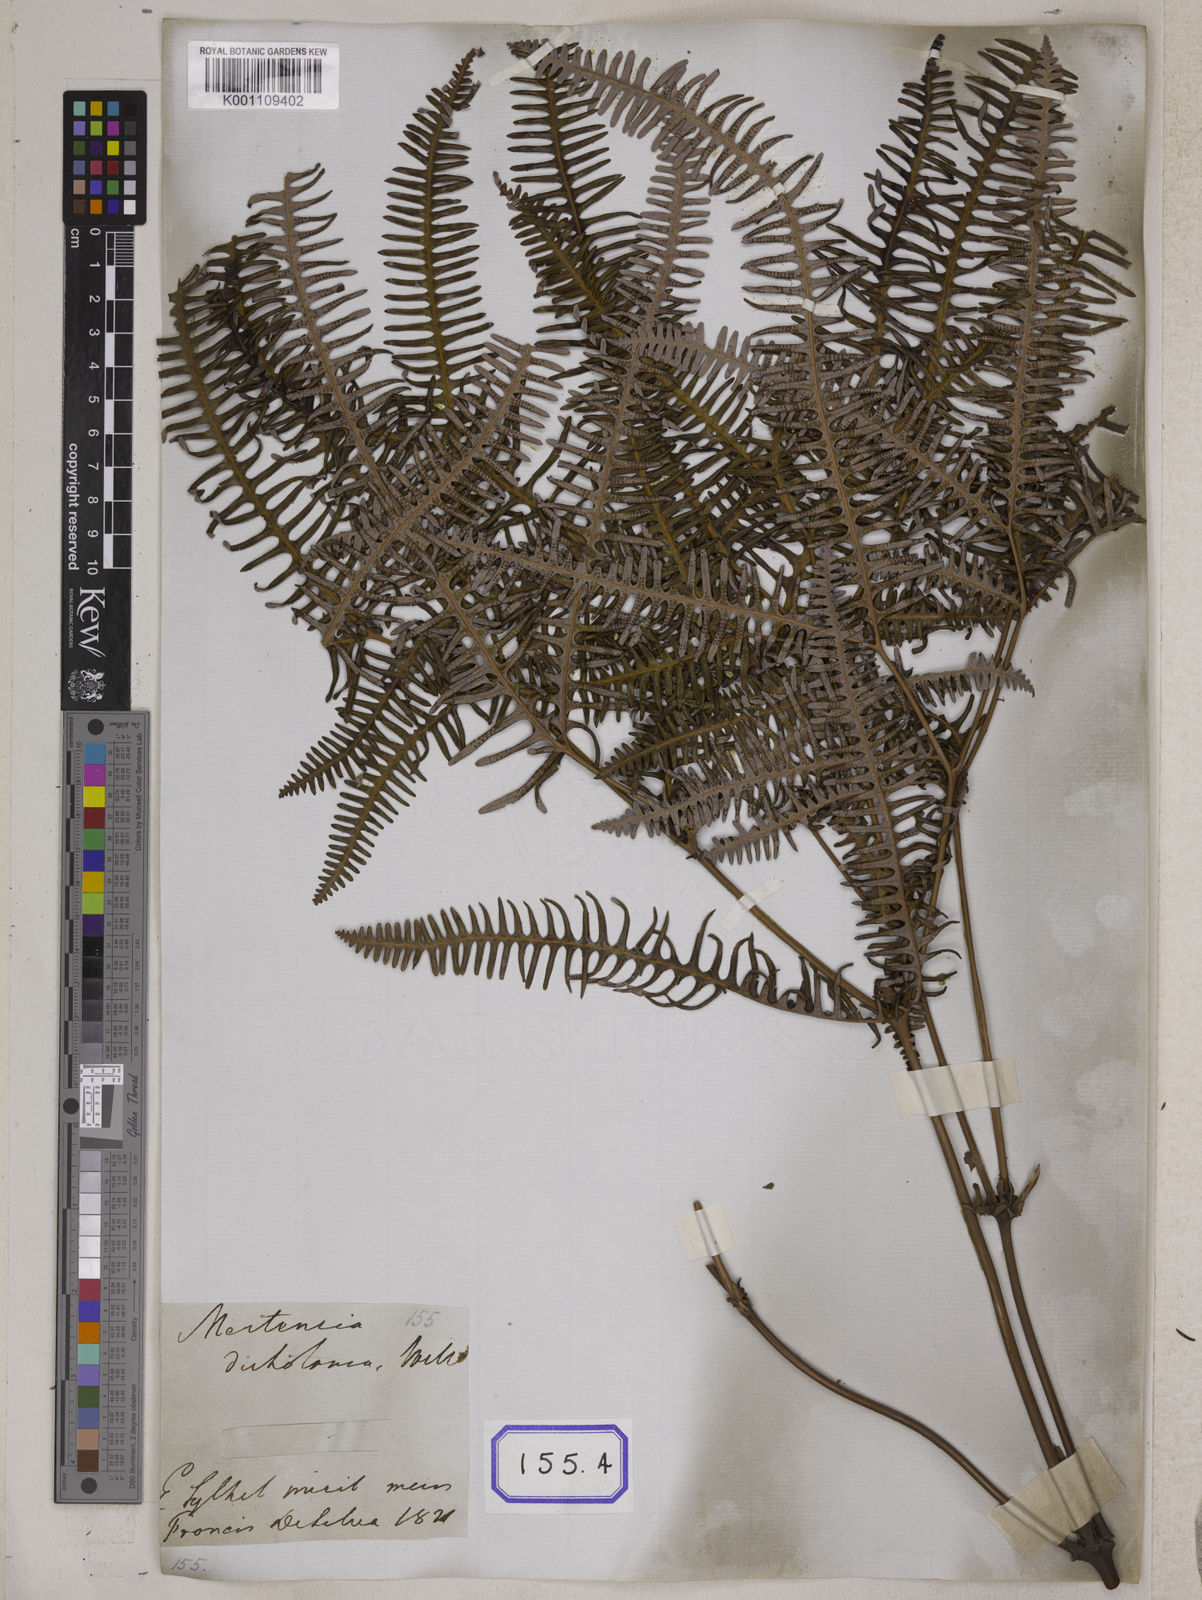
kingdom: Plantae
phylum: Tracheophyta
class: Polypodiopsida
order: Gleicheniales
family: Gleicheniaceae
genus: Dicranopteris
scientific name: Dicranopteris linearis
